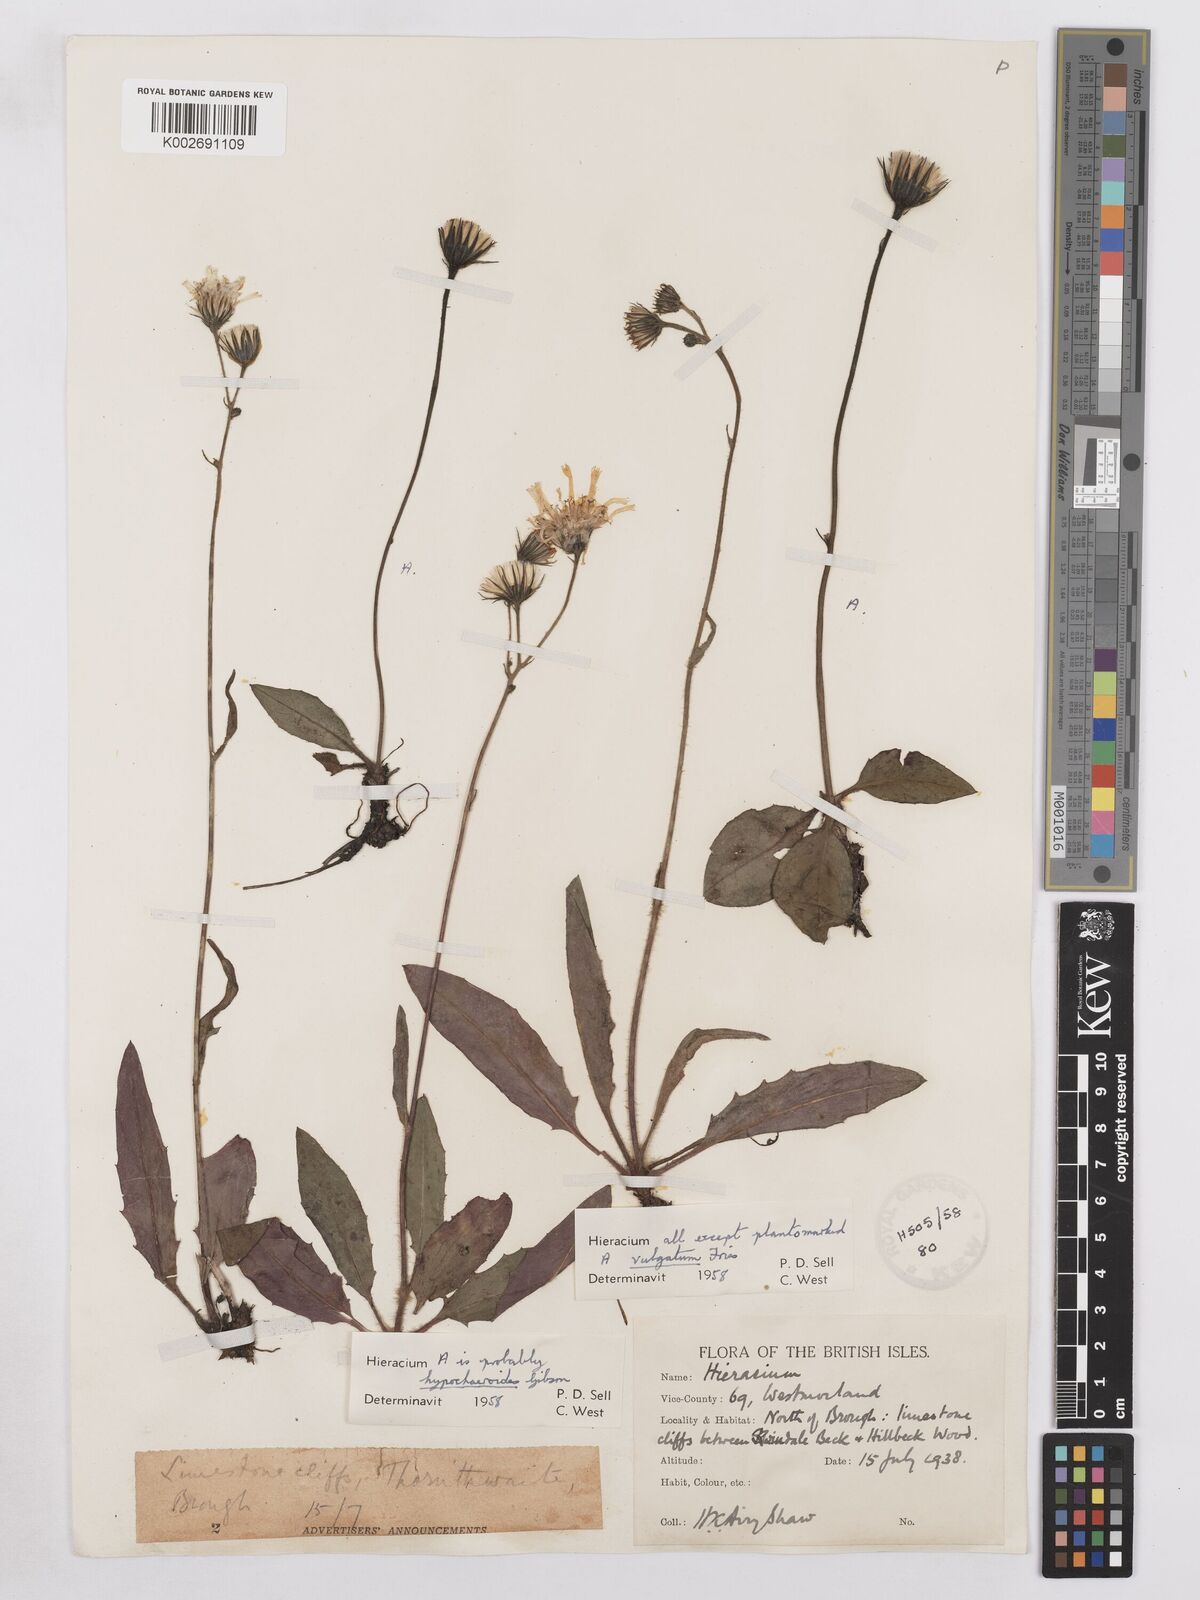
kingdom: Plantae
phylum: Tracheophyta
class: Magnoliopsida
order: Asterales
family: Asteraceae
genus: Hieracium
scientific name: Hieracium lachenalii
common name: Common hawkweed
